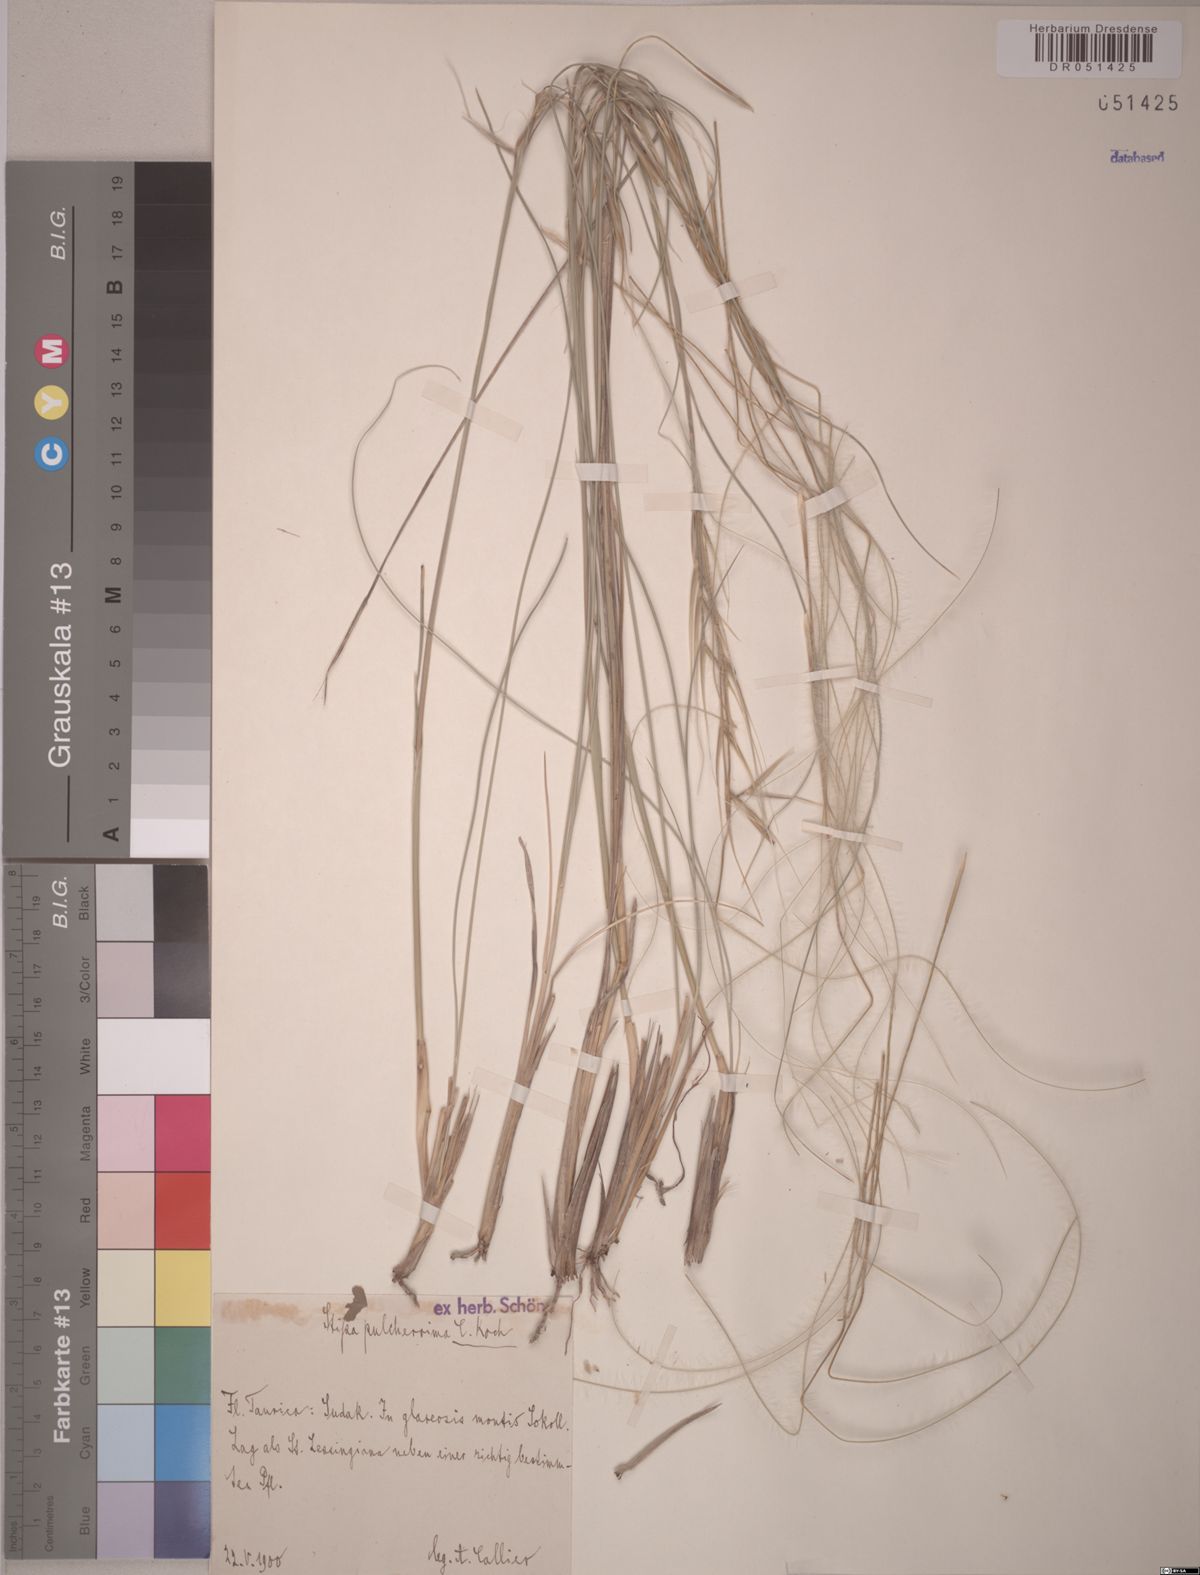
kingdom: Plantae
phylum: Tracheophyta
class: Liliopsida
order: Poales
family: Poaceae
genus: Stipa
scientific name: Stipa pulcherrima
